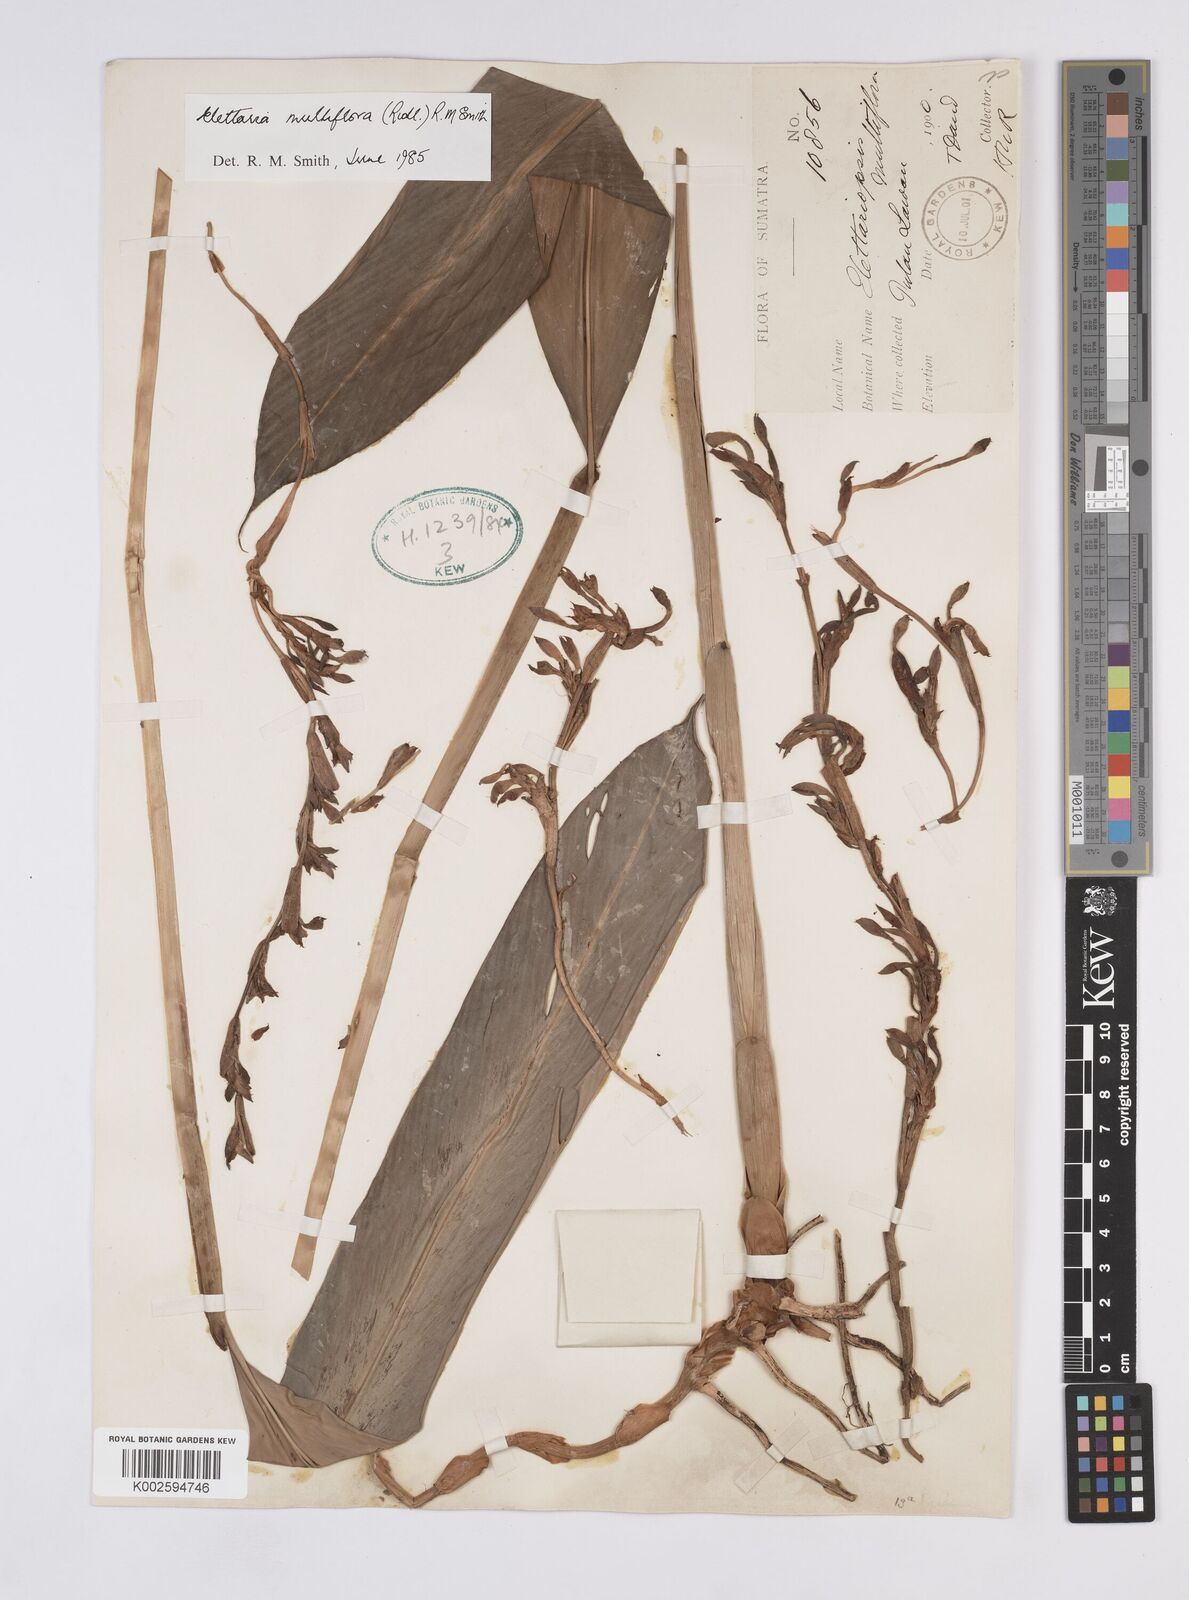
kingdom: Plantae
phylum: Tracheophyta
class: Liliopsida
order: Zingiberales
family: Zingiberaceae
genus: Sulettaria
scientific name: Sulettaria multiflora
